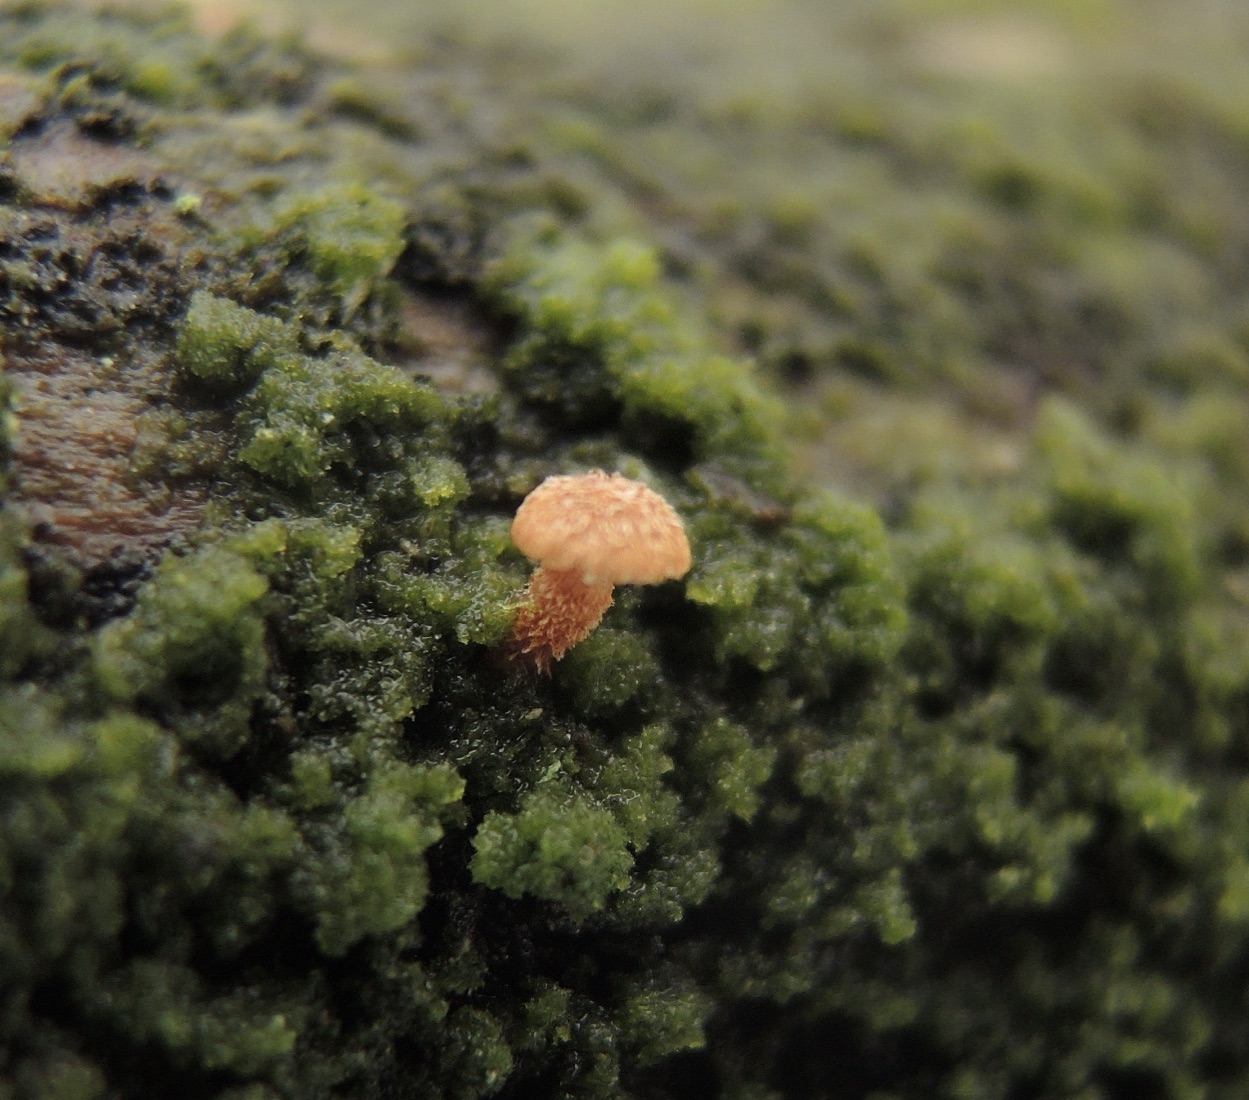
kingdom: Fungi
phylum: Basidiomycota
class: Agaricomycetes
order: Agaricales
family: Tubariaceae
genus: Phaeomarasmius
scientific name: Phaeomarasmius erinaceus
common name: spidsskælhat
